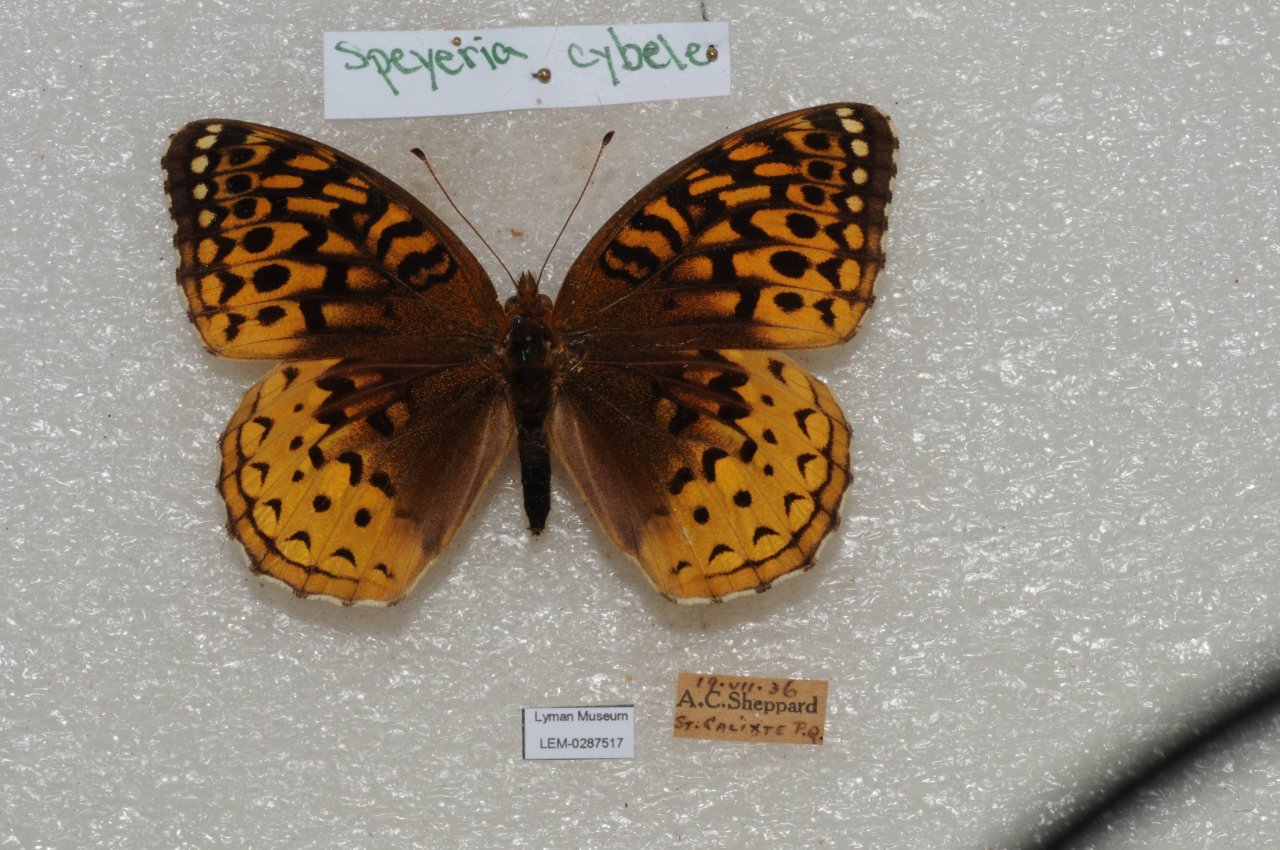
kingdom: Animalia
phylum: Arthropoda
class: Insecta
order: Lepidoptera
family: Nymphalidae
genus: Speyeria
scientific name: Speyeria cybele
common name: Great Spangled Fritillary
